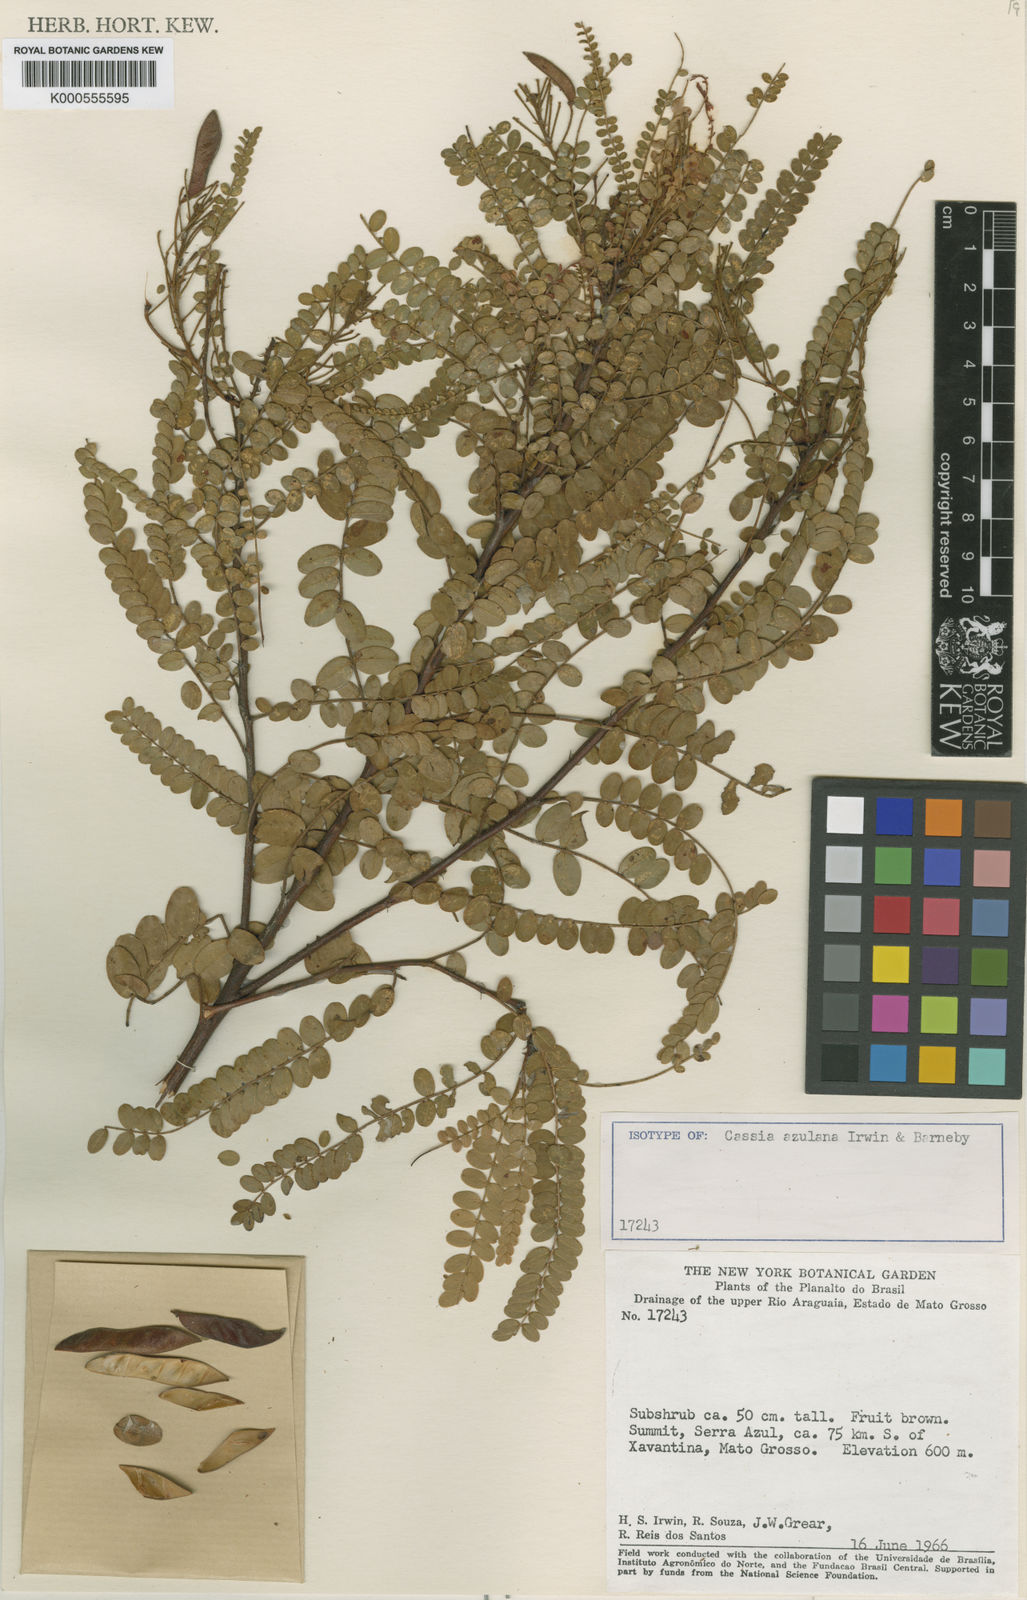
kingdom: Plantae
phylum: Tracheophyta
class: Magnoliopsida
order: Fabales
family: Fabaceae
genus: Chamaecrista
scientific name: Chamaecrista azulana
